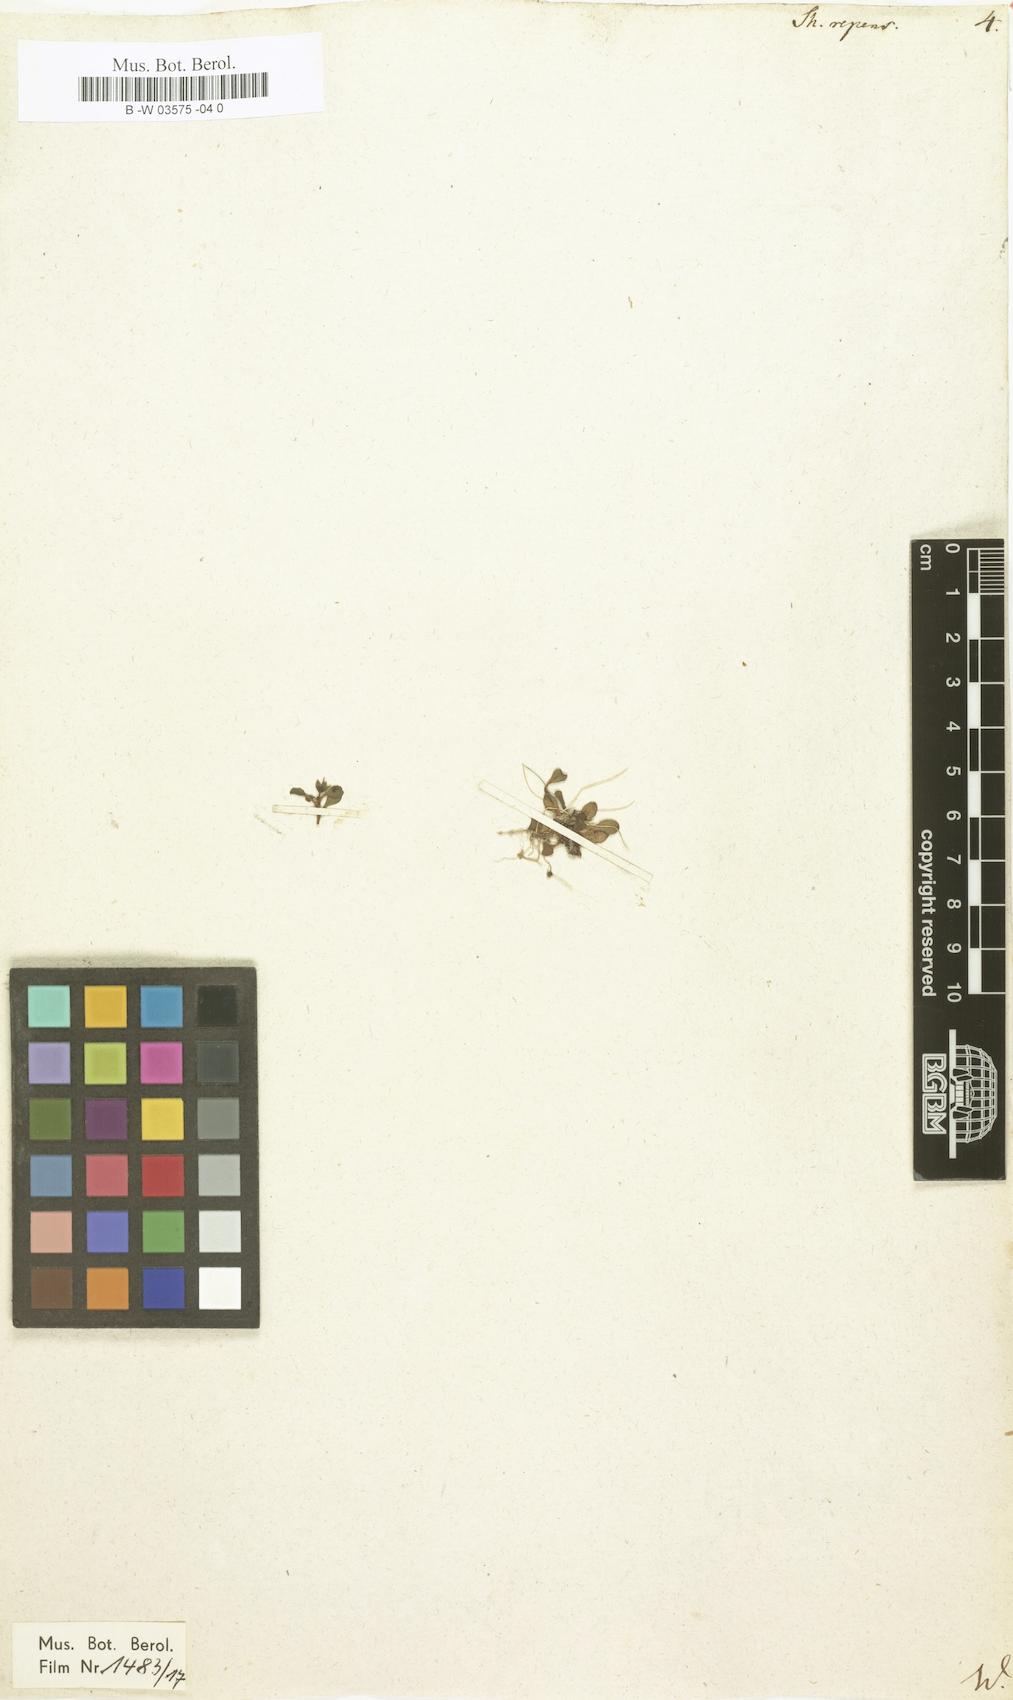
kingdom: Plantae
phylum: Tracheophyta
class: Magnoliopsida
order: Ericales
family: Primulaceae
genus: Samolus
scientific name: Samolus repens
